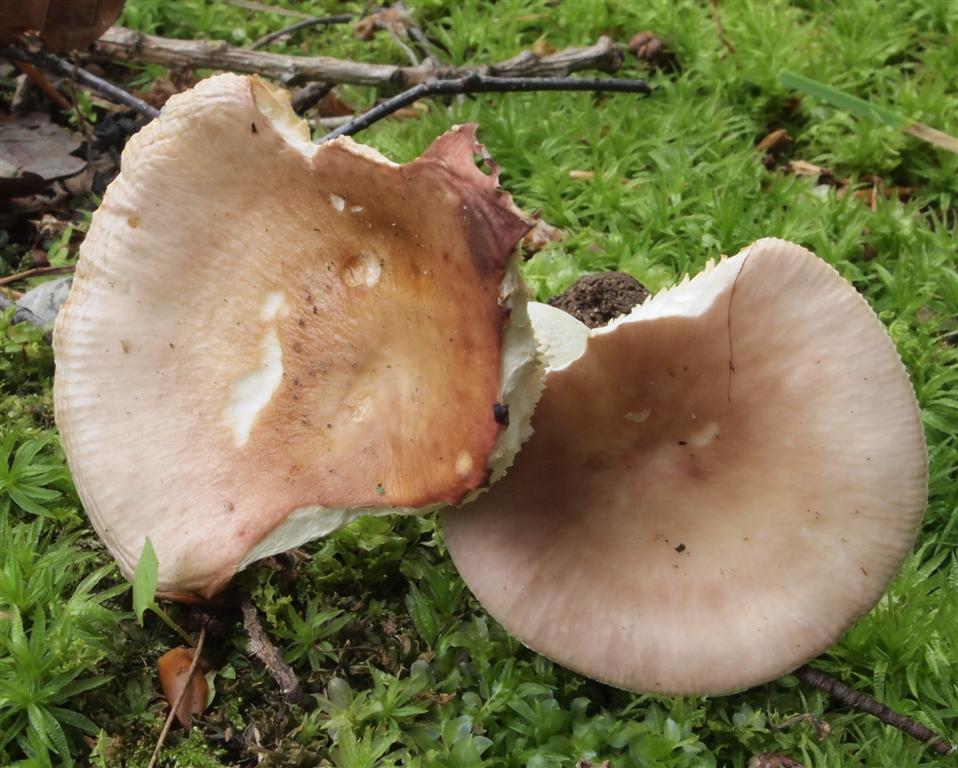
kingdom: Fungi
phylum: Basidiomycota
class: Agaricomycetes
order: Russulales
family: Russulaceae
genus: Russula
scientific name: Russula vesca
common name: spiselig skørhat
